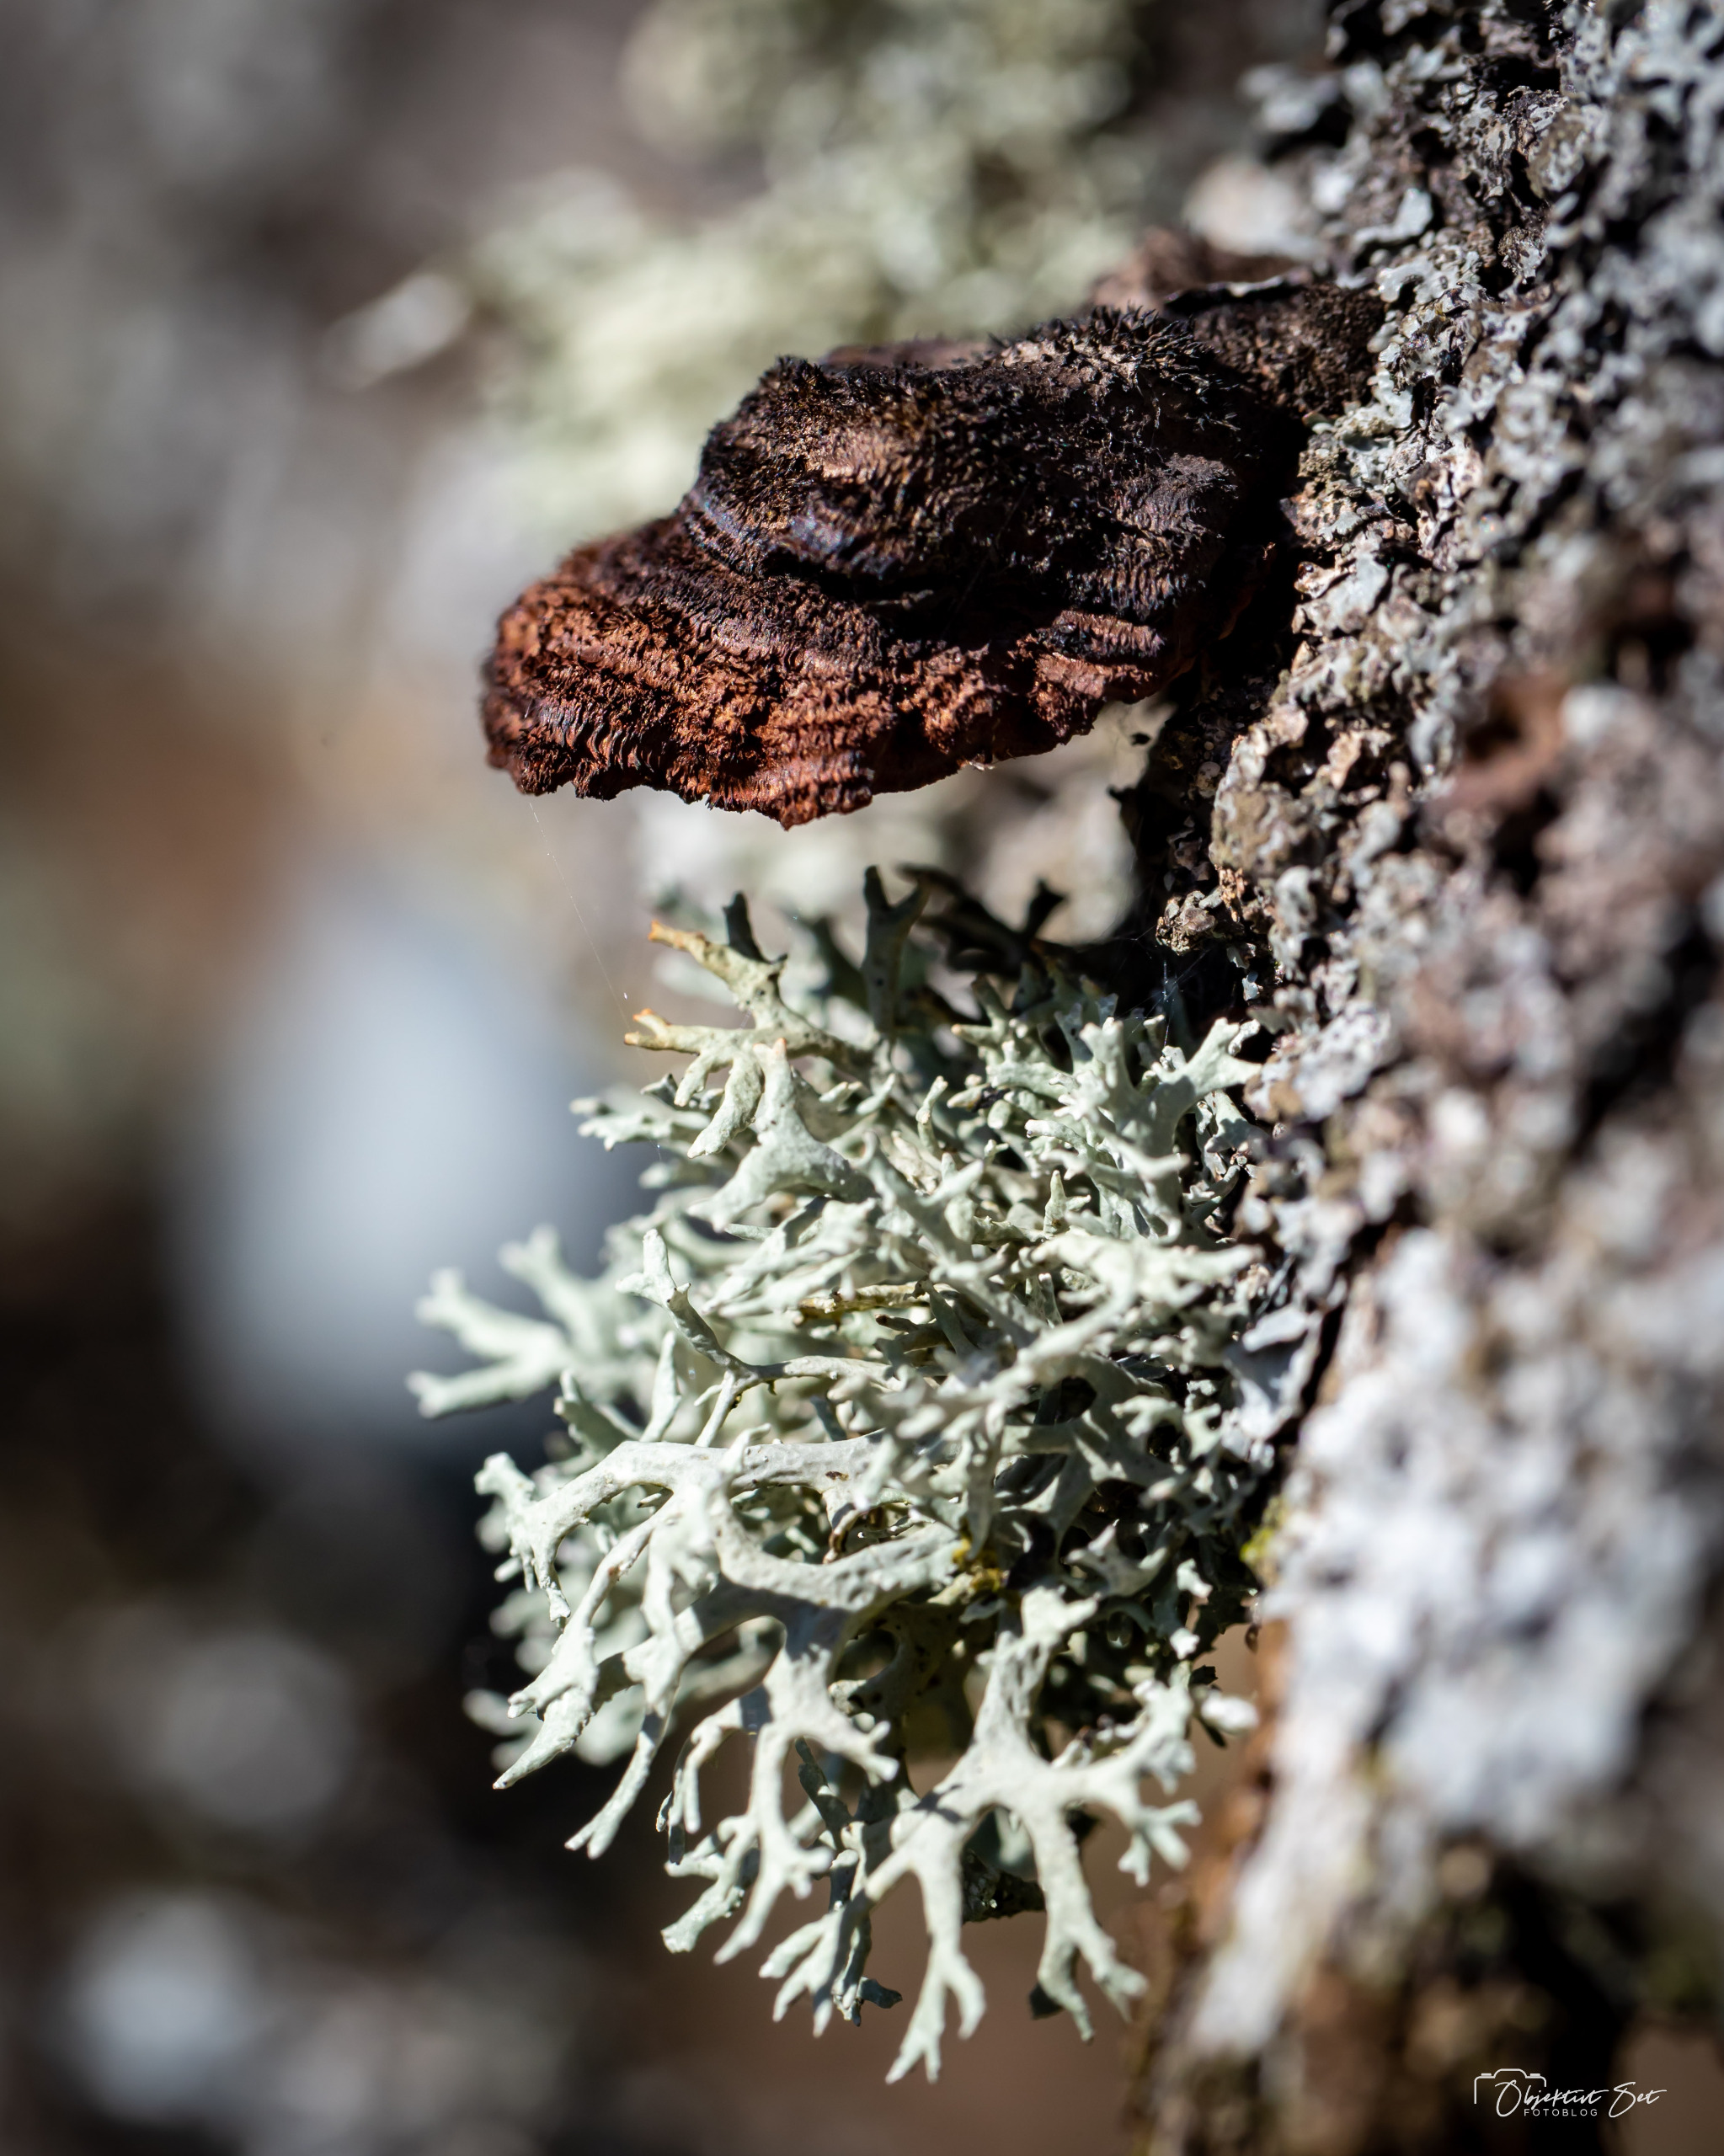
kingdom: Fungi
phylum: Ascomycota
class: Lecanoromycetes
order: Lecanorales
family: Parmeliaceae
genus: Evernia
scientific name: Evernia prunastri
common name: Almindelig slåenlav
